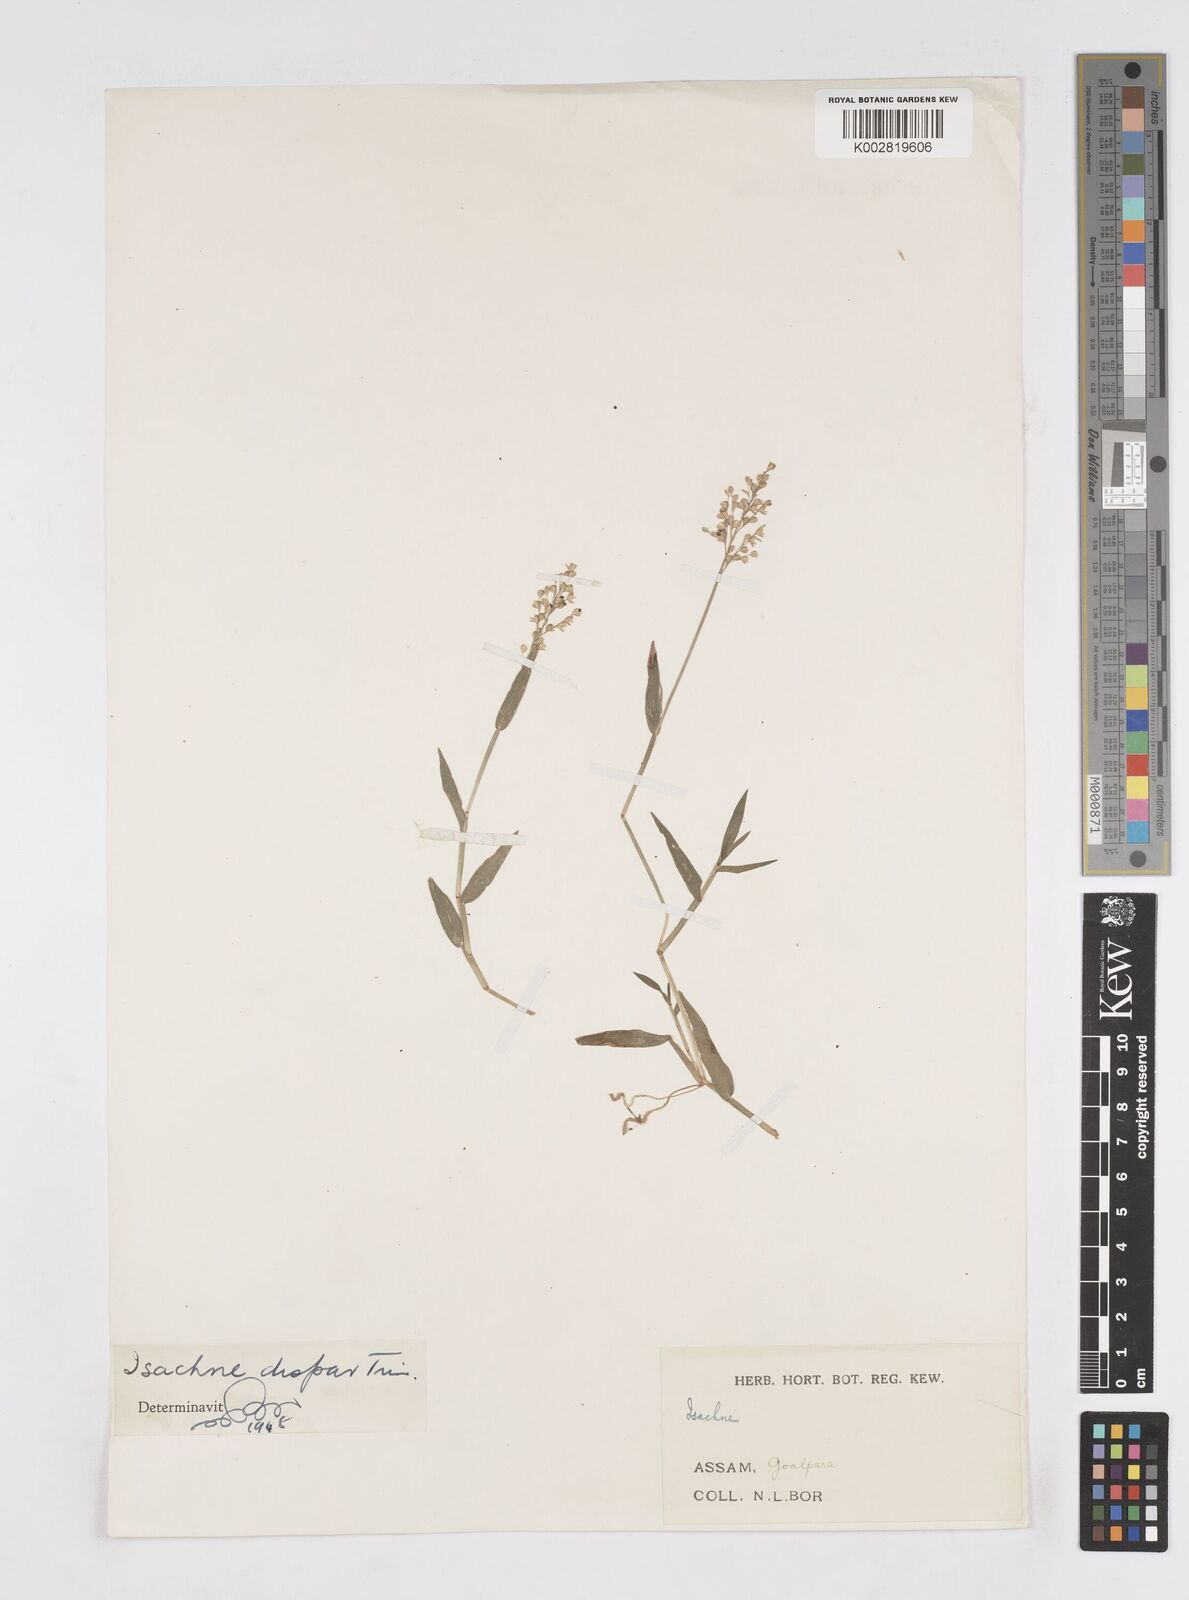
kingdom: Plantae
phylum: Tracheophyta
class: Liliopsida
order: Poales
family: Poaceae
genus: Isachne
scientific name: Isachne globosa
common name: Swamp millet
